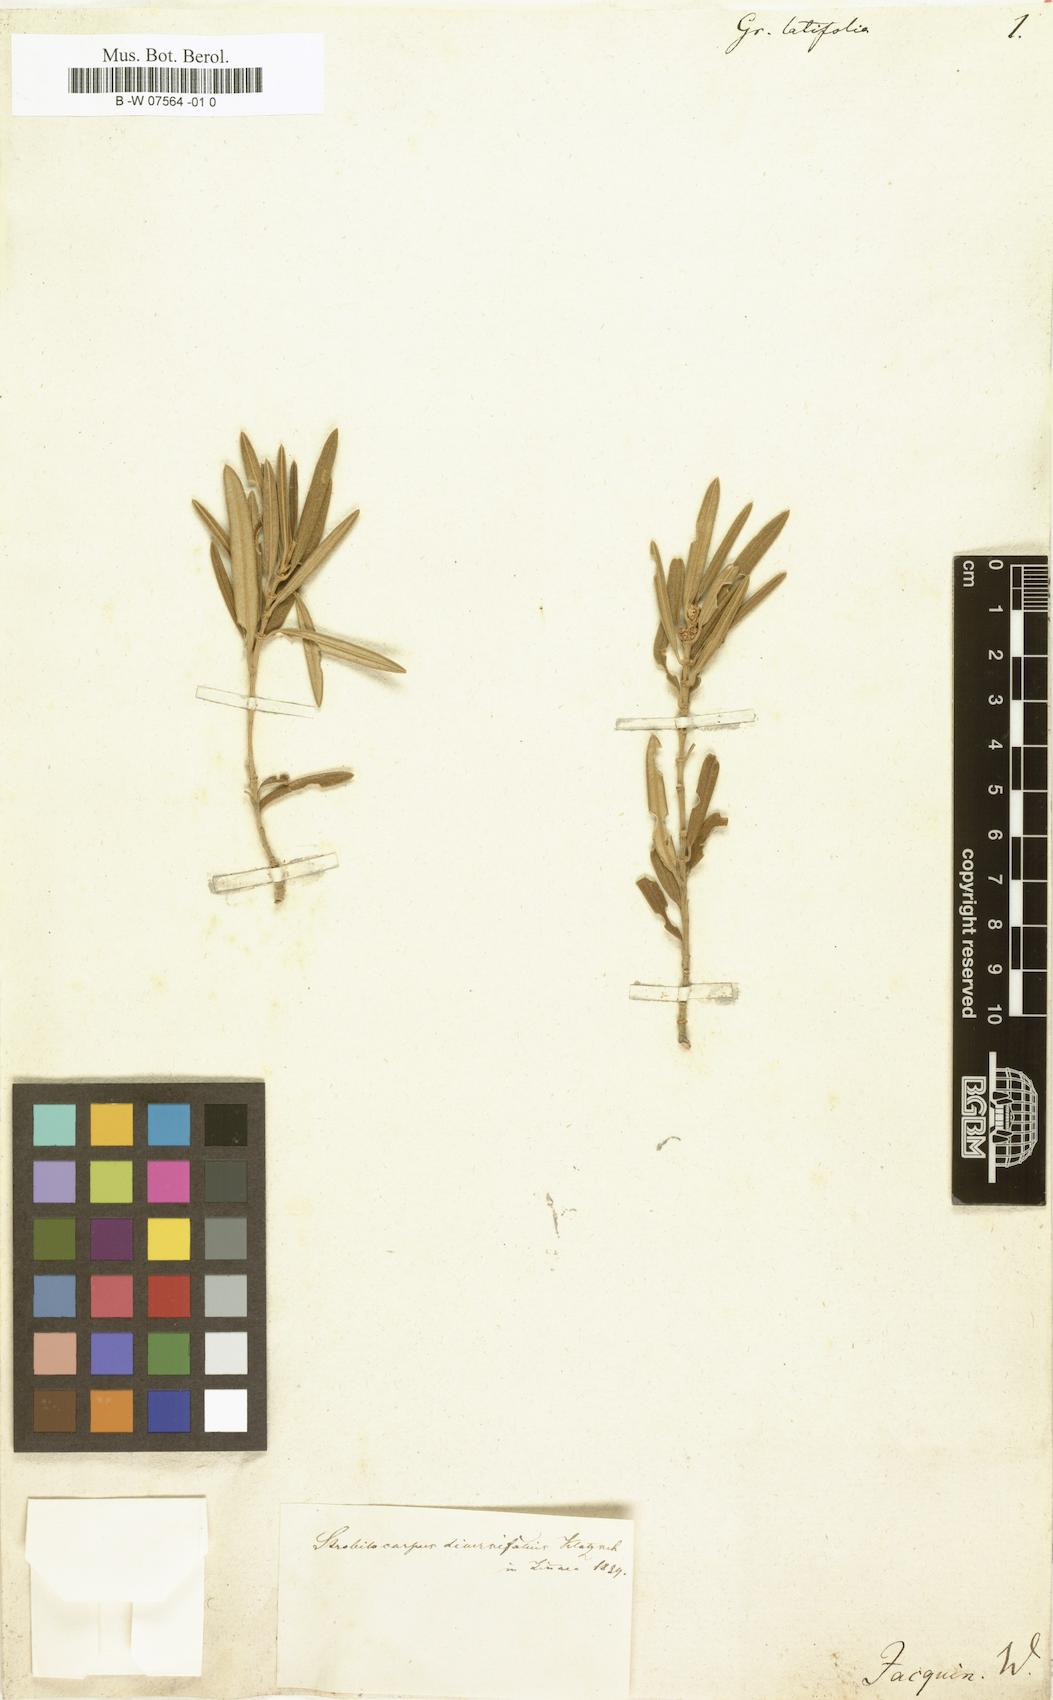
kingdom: Plantae
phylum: Tracheophyta
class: Magnoliopsida
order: Cornales
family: Grubbiaceae
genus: Grubbia
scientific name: Grubbia
